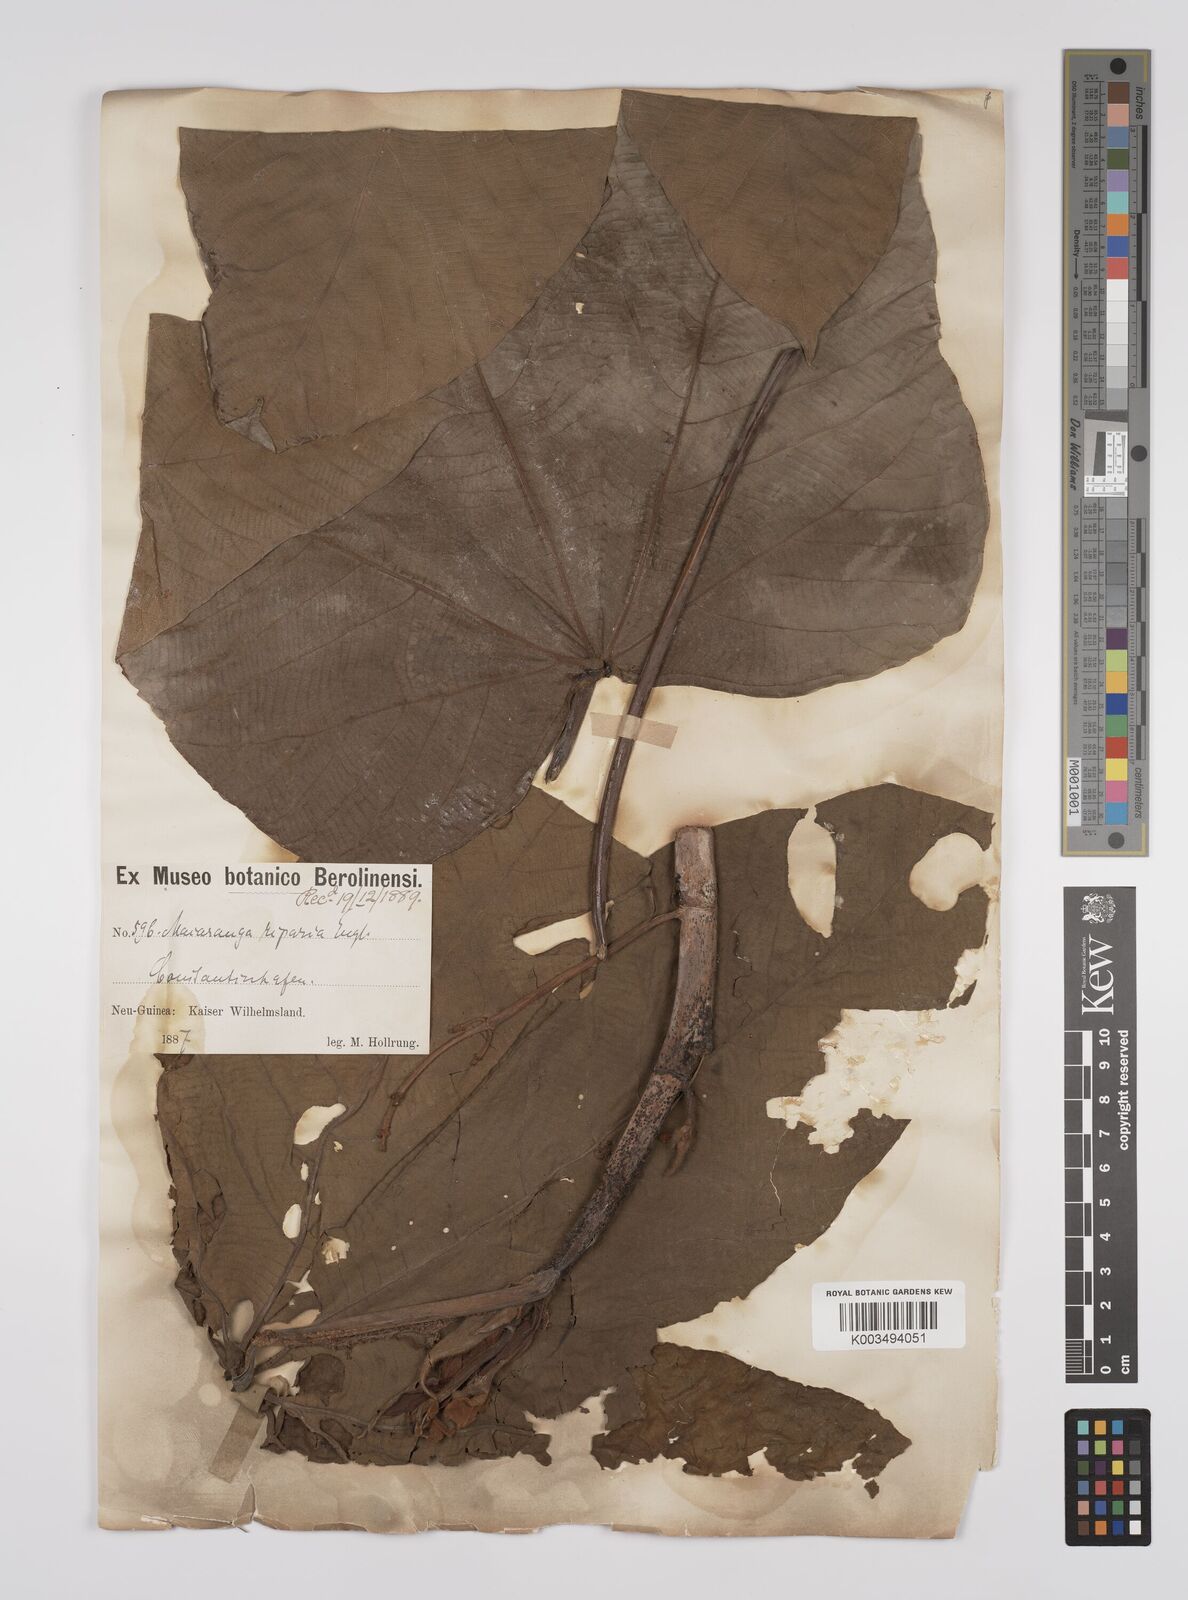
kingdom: Plantae
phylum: Tracheophyta
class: Magnoliopsida
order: Malpighiales
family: Euphorbiaceae
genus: Macaranga
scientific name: Macaranga aleuritoides
